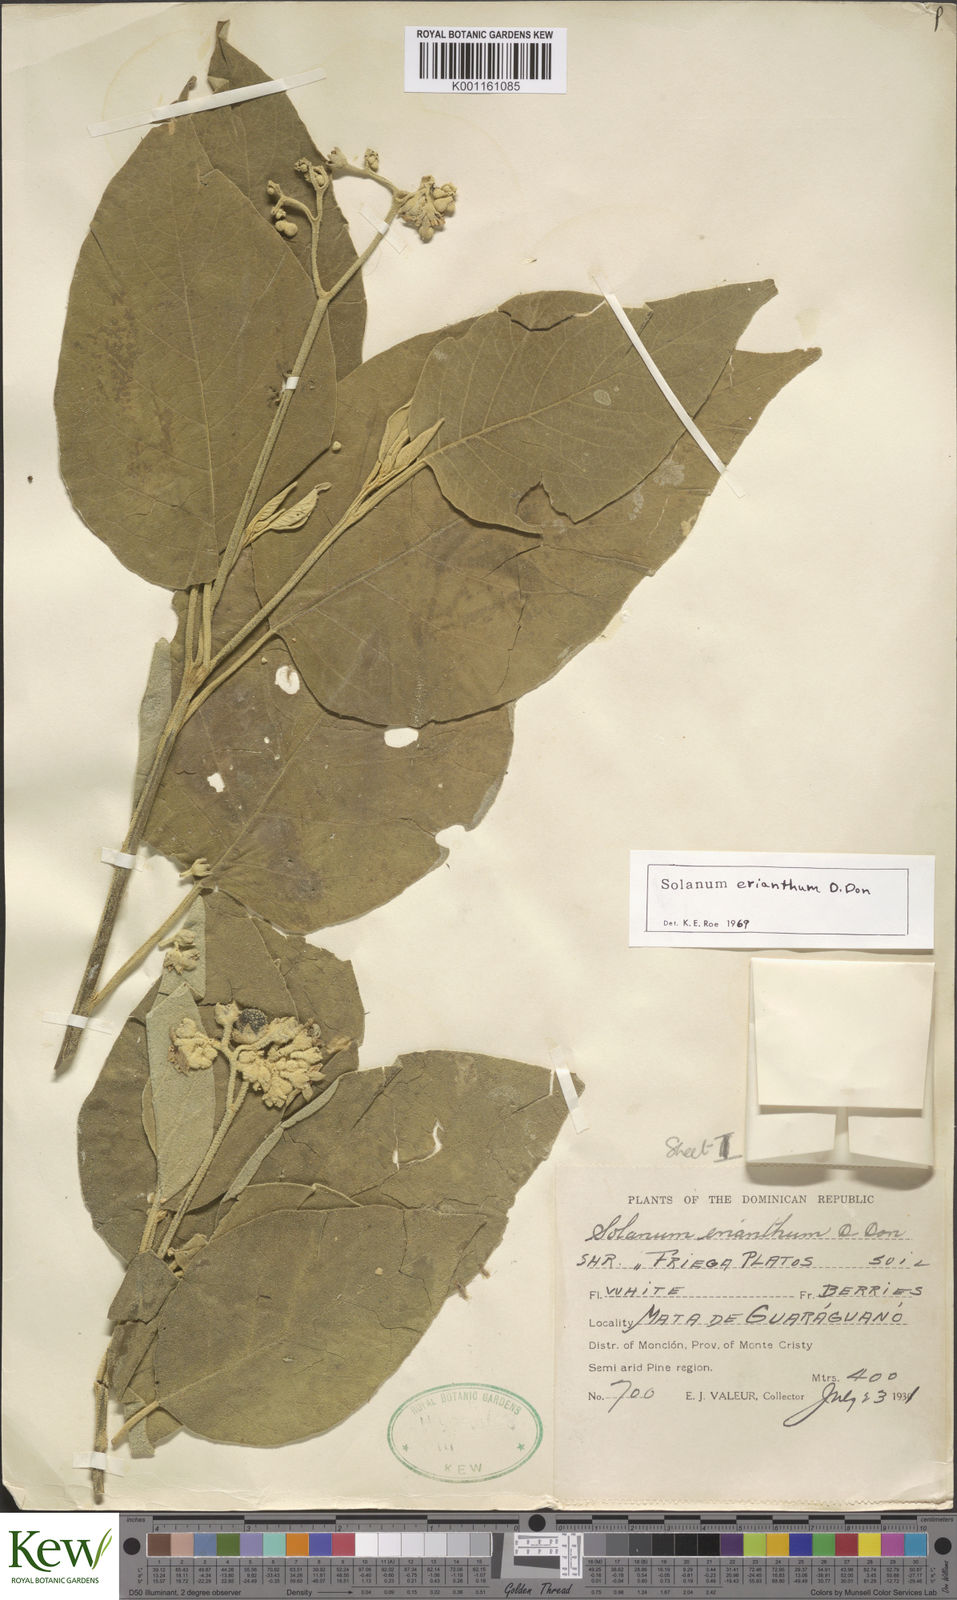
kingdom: Plantae
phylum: Tracheophyta
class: Magnoliopsida
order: Solanales
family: Solanaceae
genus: Solanum
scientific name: Solanum erianthum
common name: Tobacco-tree
